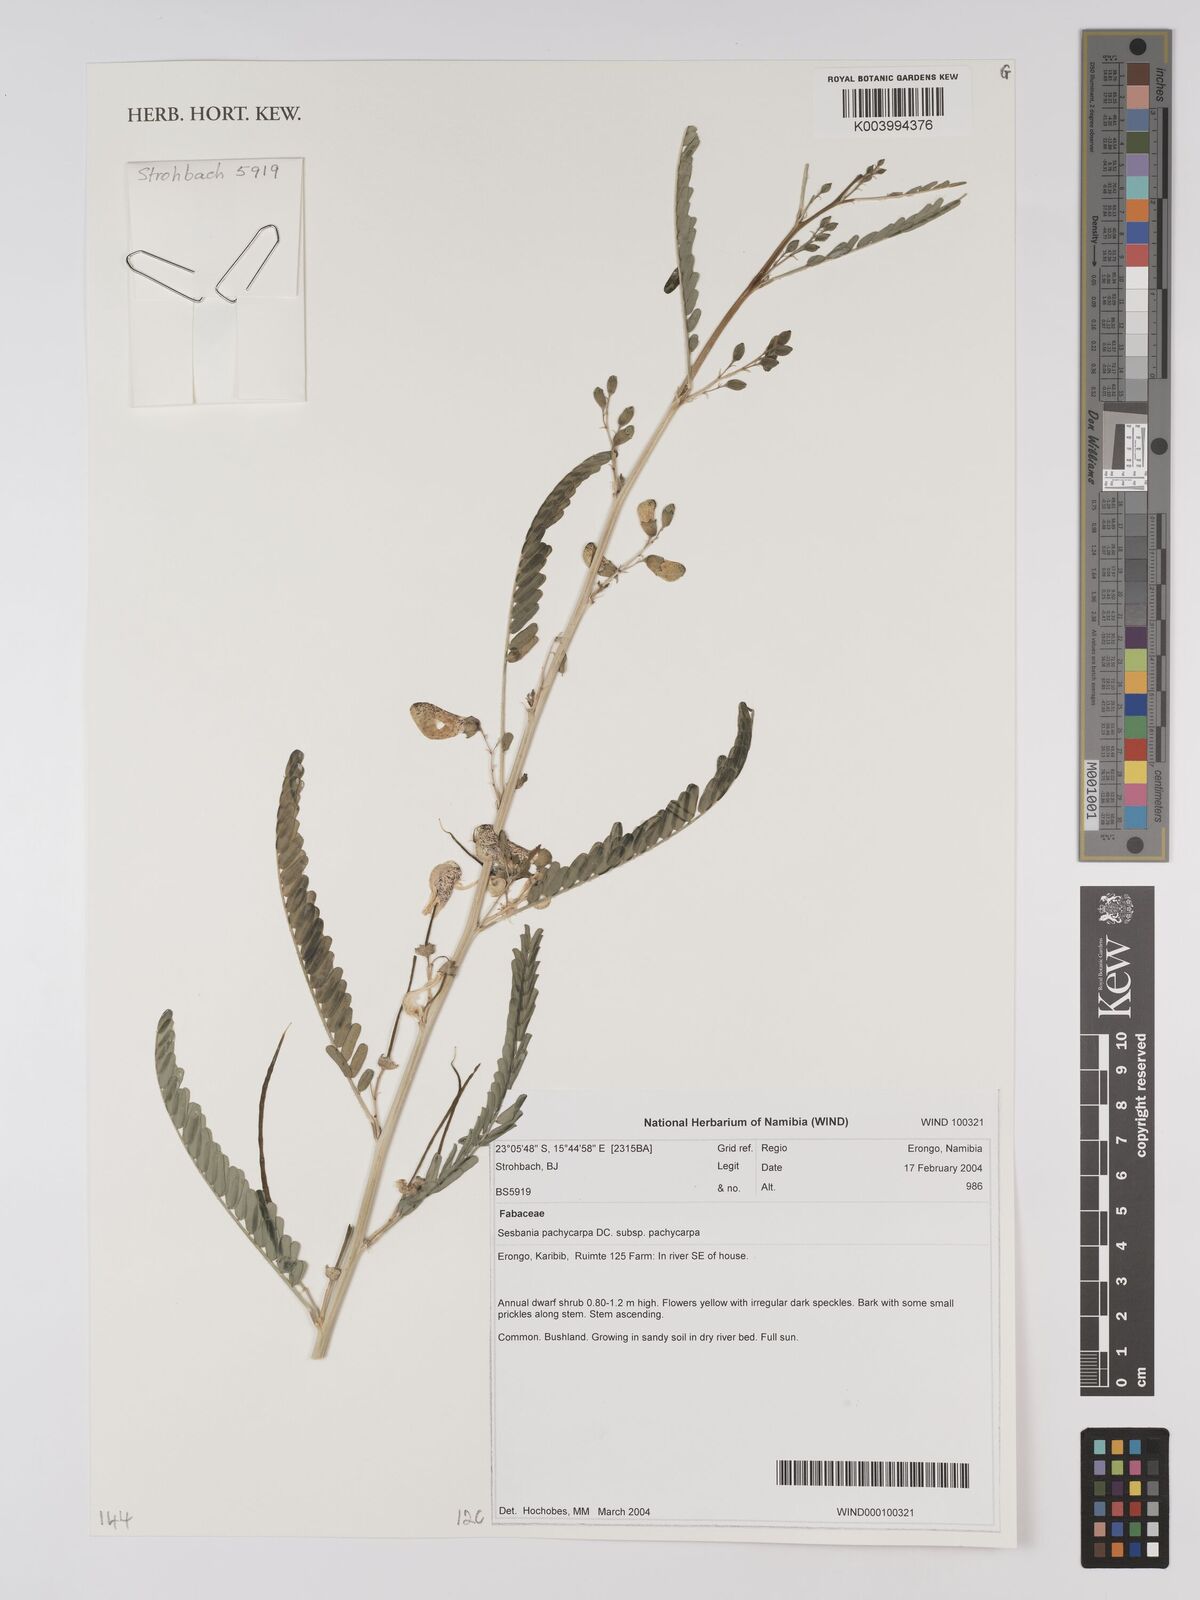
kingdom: Plantae
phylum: Tracheophyta
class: Magnoliopsida
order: Fabales
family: Fabaceae
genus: Sesbania
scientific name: Sesbania pachycarpa
